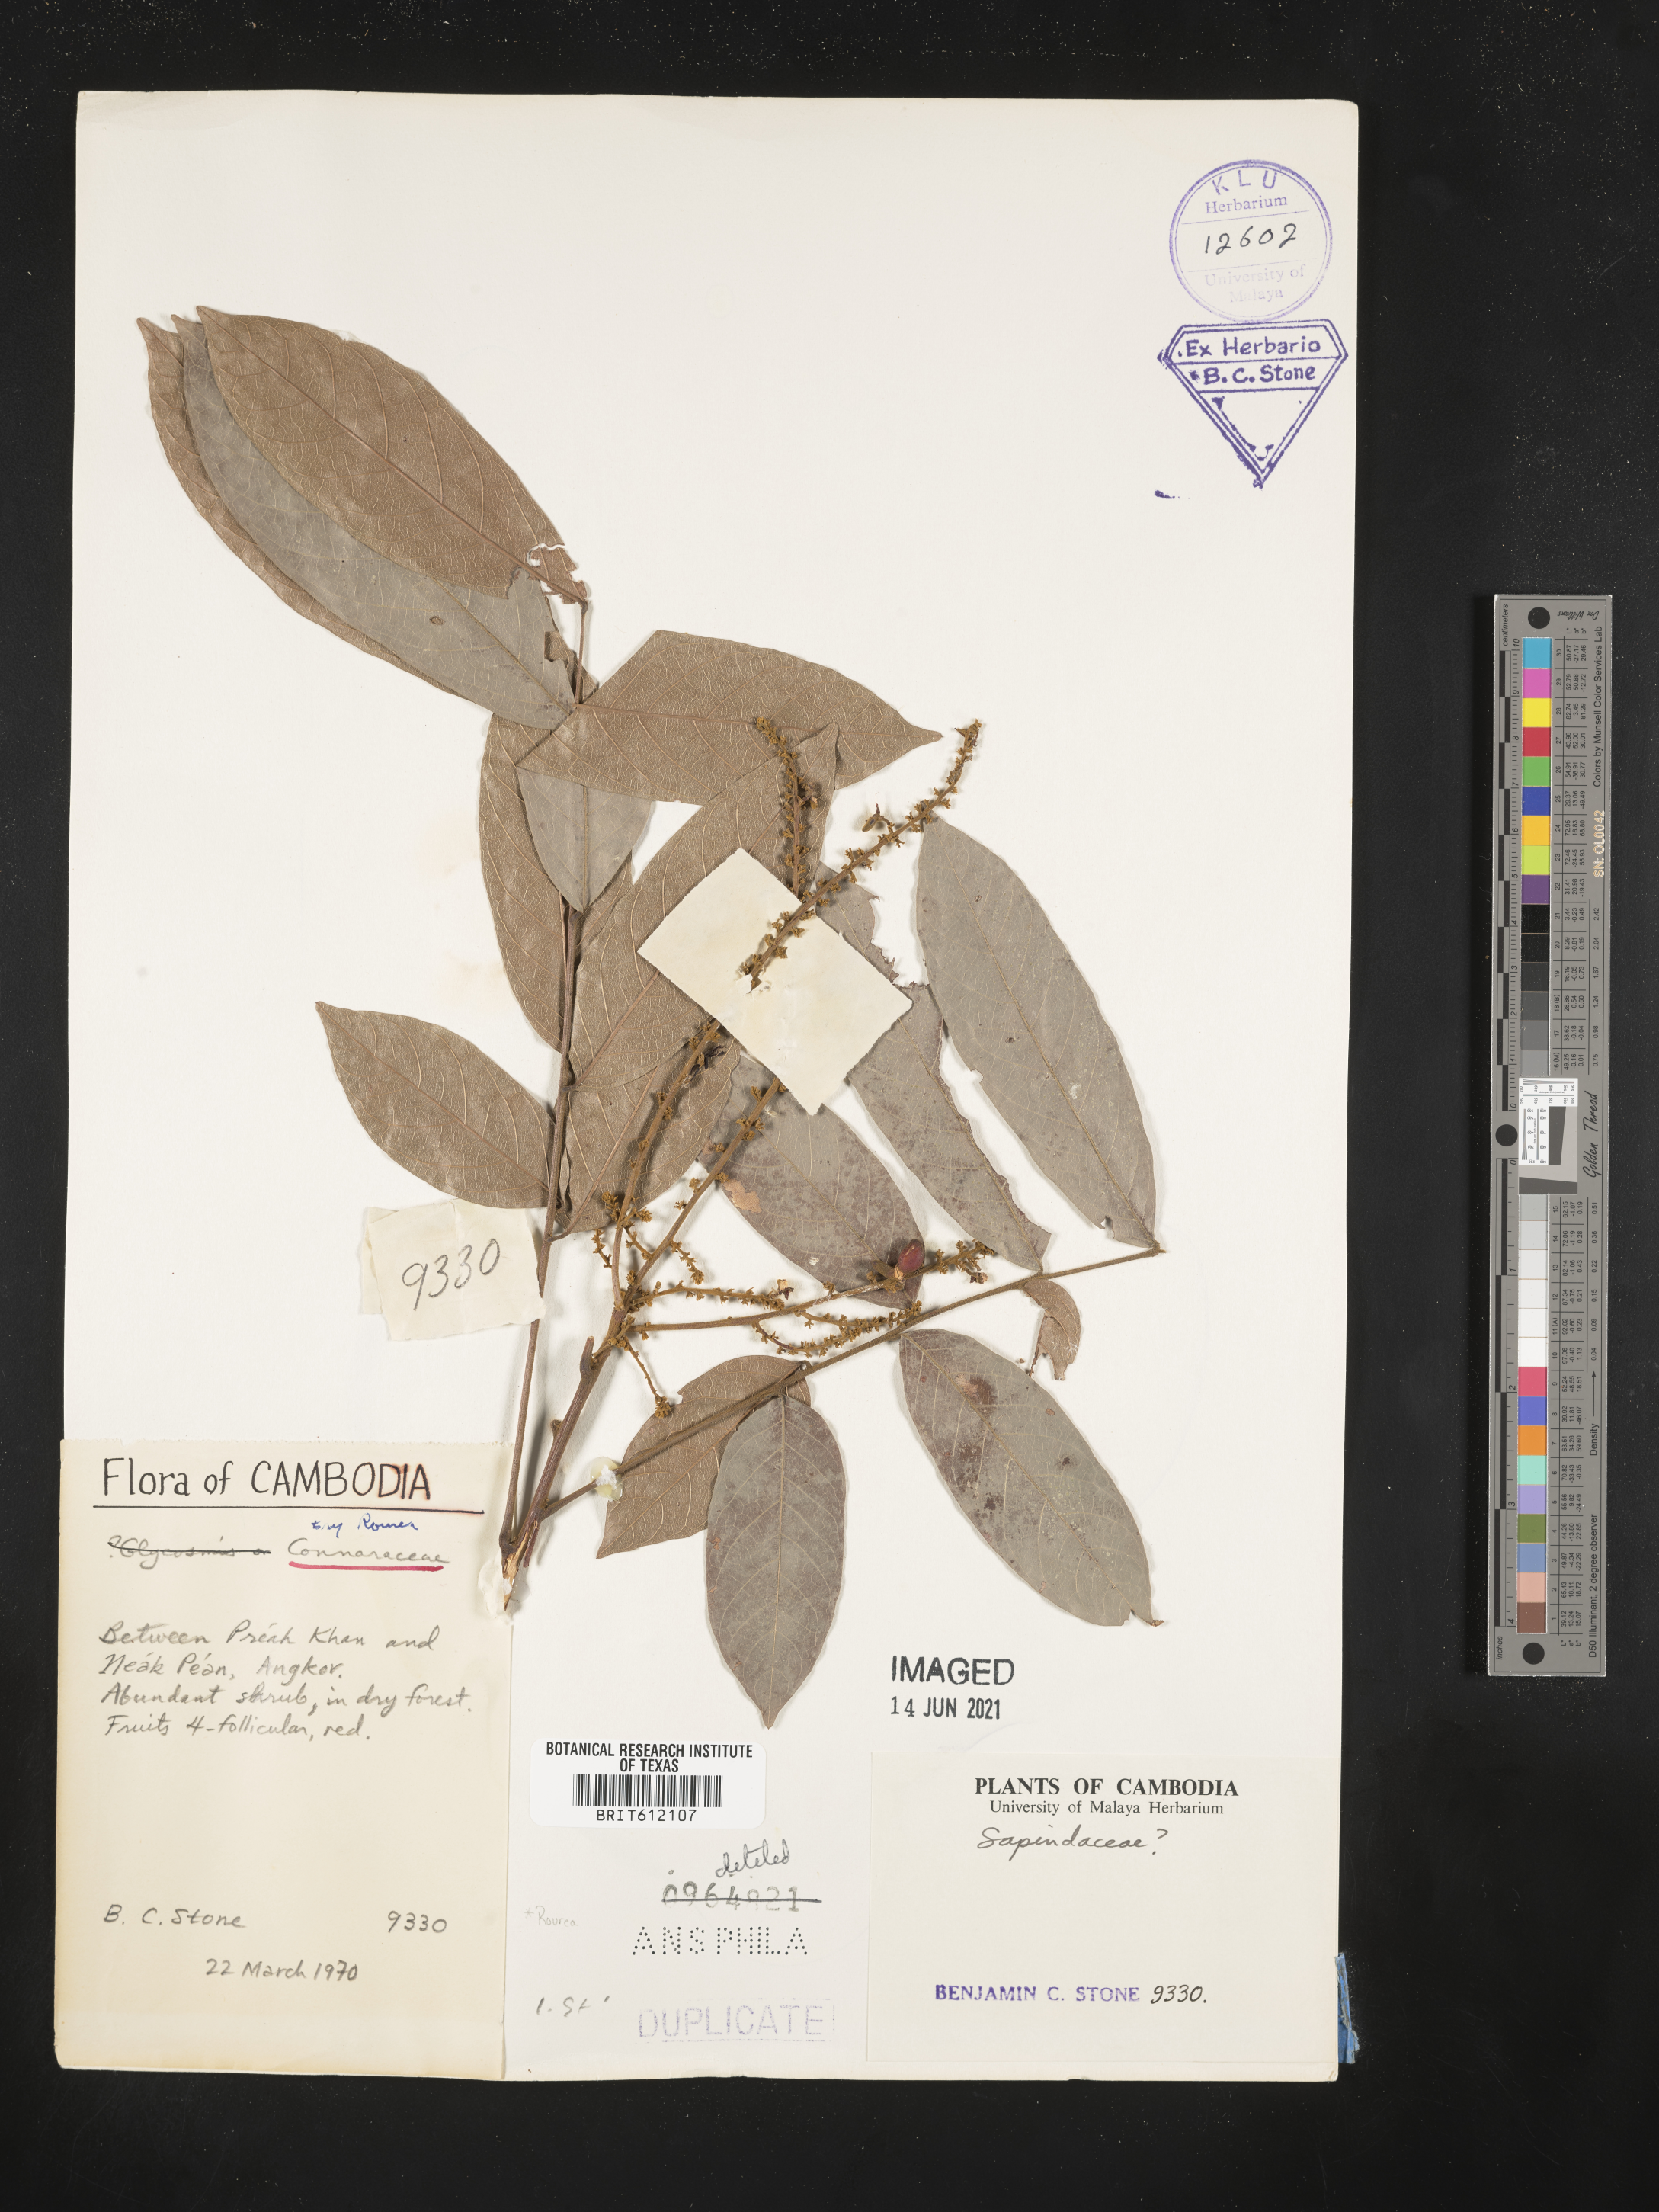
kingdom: Plantae
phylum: Tracheophyta
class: Magnoliopsida
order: Sapindales
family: Sapindaceae
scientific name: Sapindaceae
